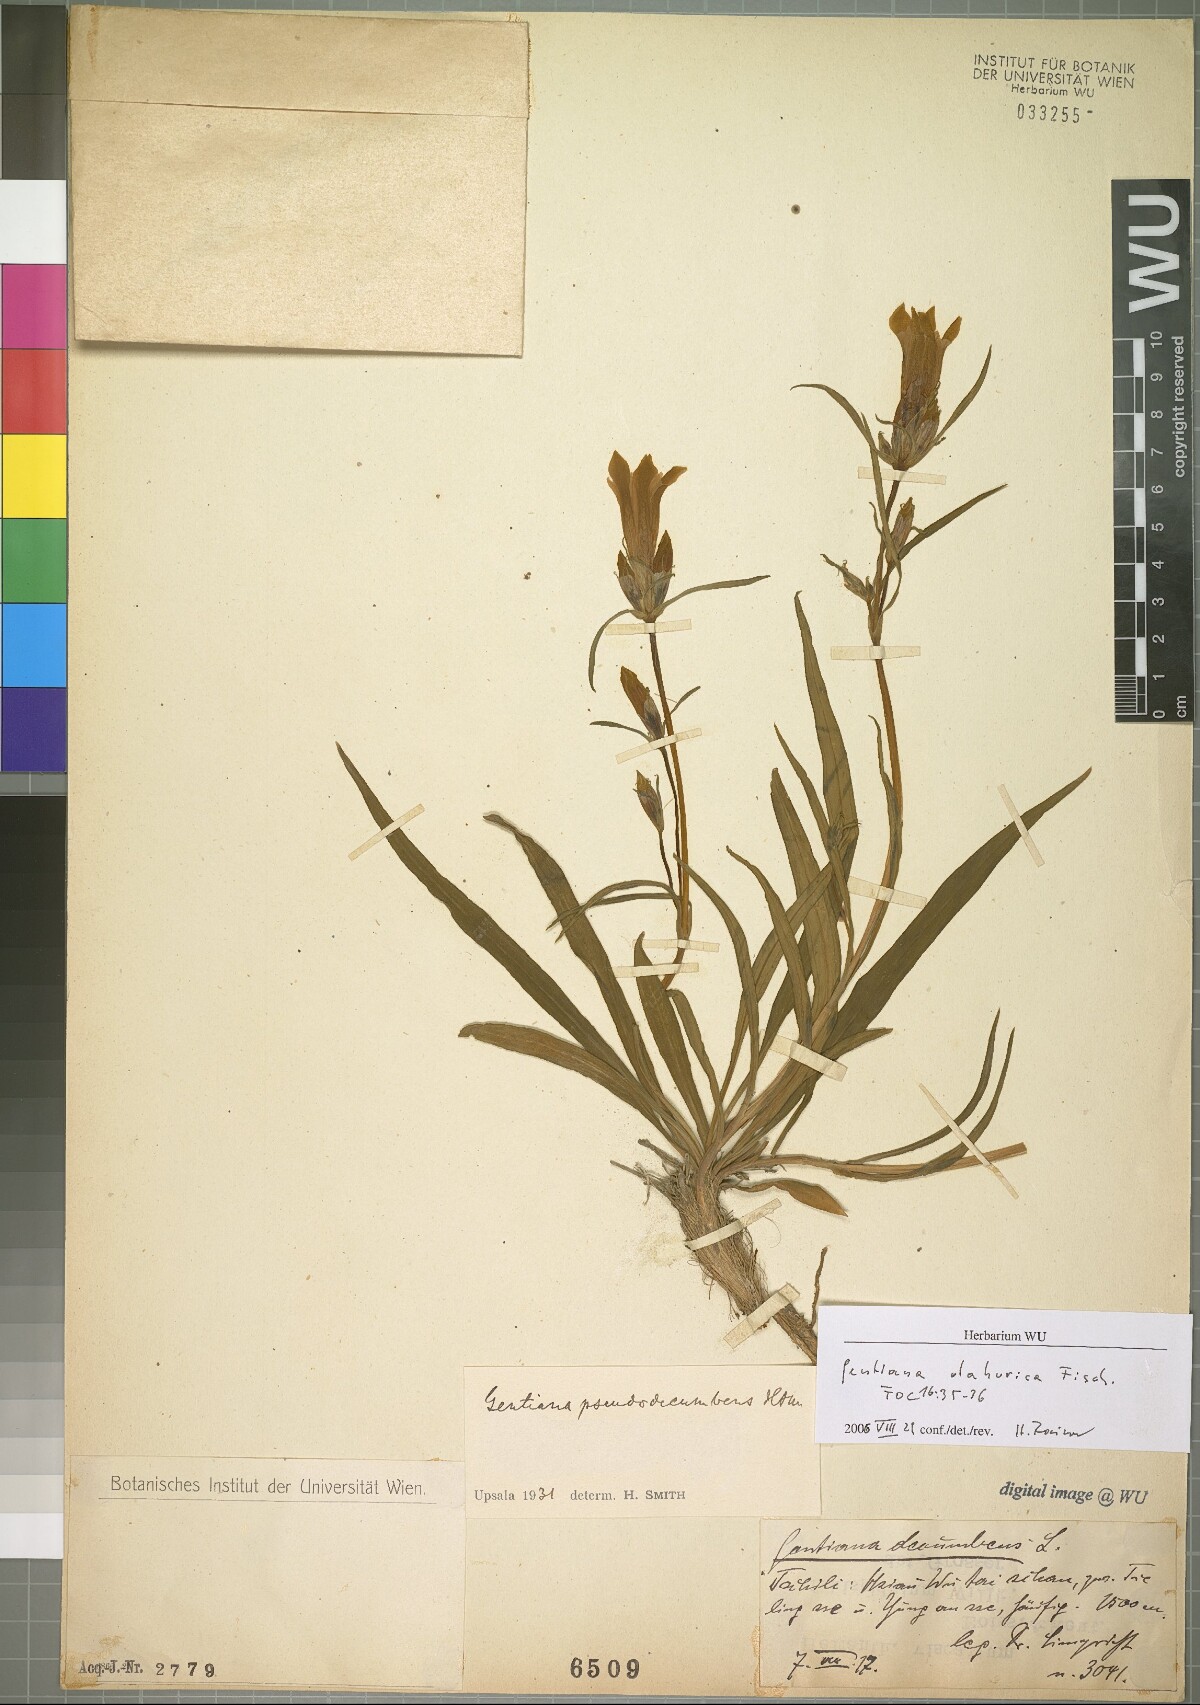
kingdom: Plantae
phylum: Tracheophyta
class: Magnoliopsida
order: Gentianales
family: Gentianaceae
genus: Gentiana
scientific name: Gentiana dahurica
